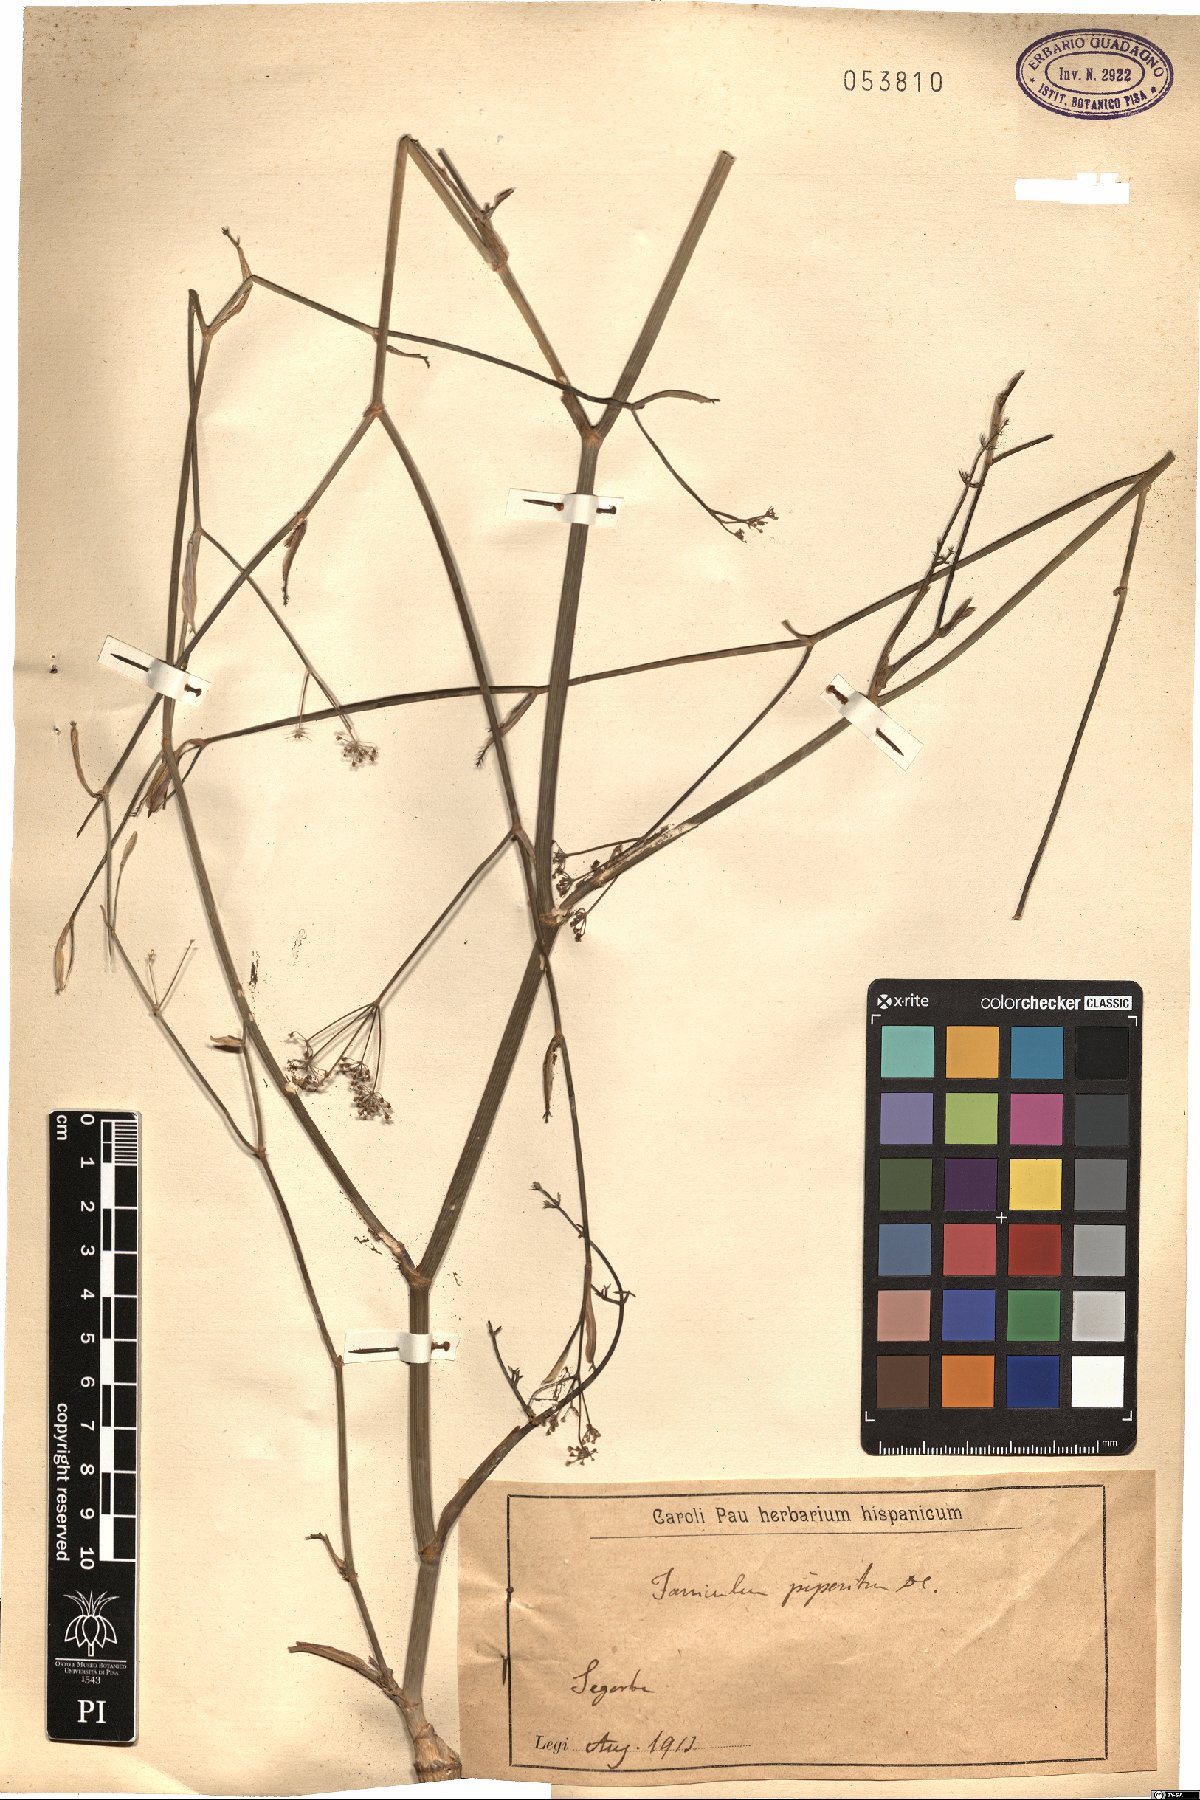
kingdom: Plantae
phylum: Tracheophyta
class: Magnoliopsida
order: Apiales
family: Apiaceae
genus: Foeniculum
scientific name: Foeniculum vulgare
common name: Fennel
